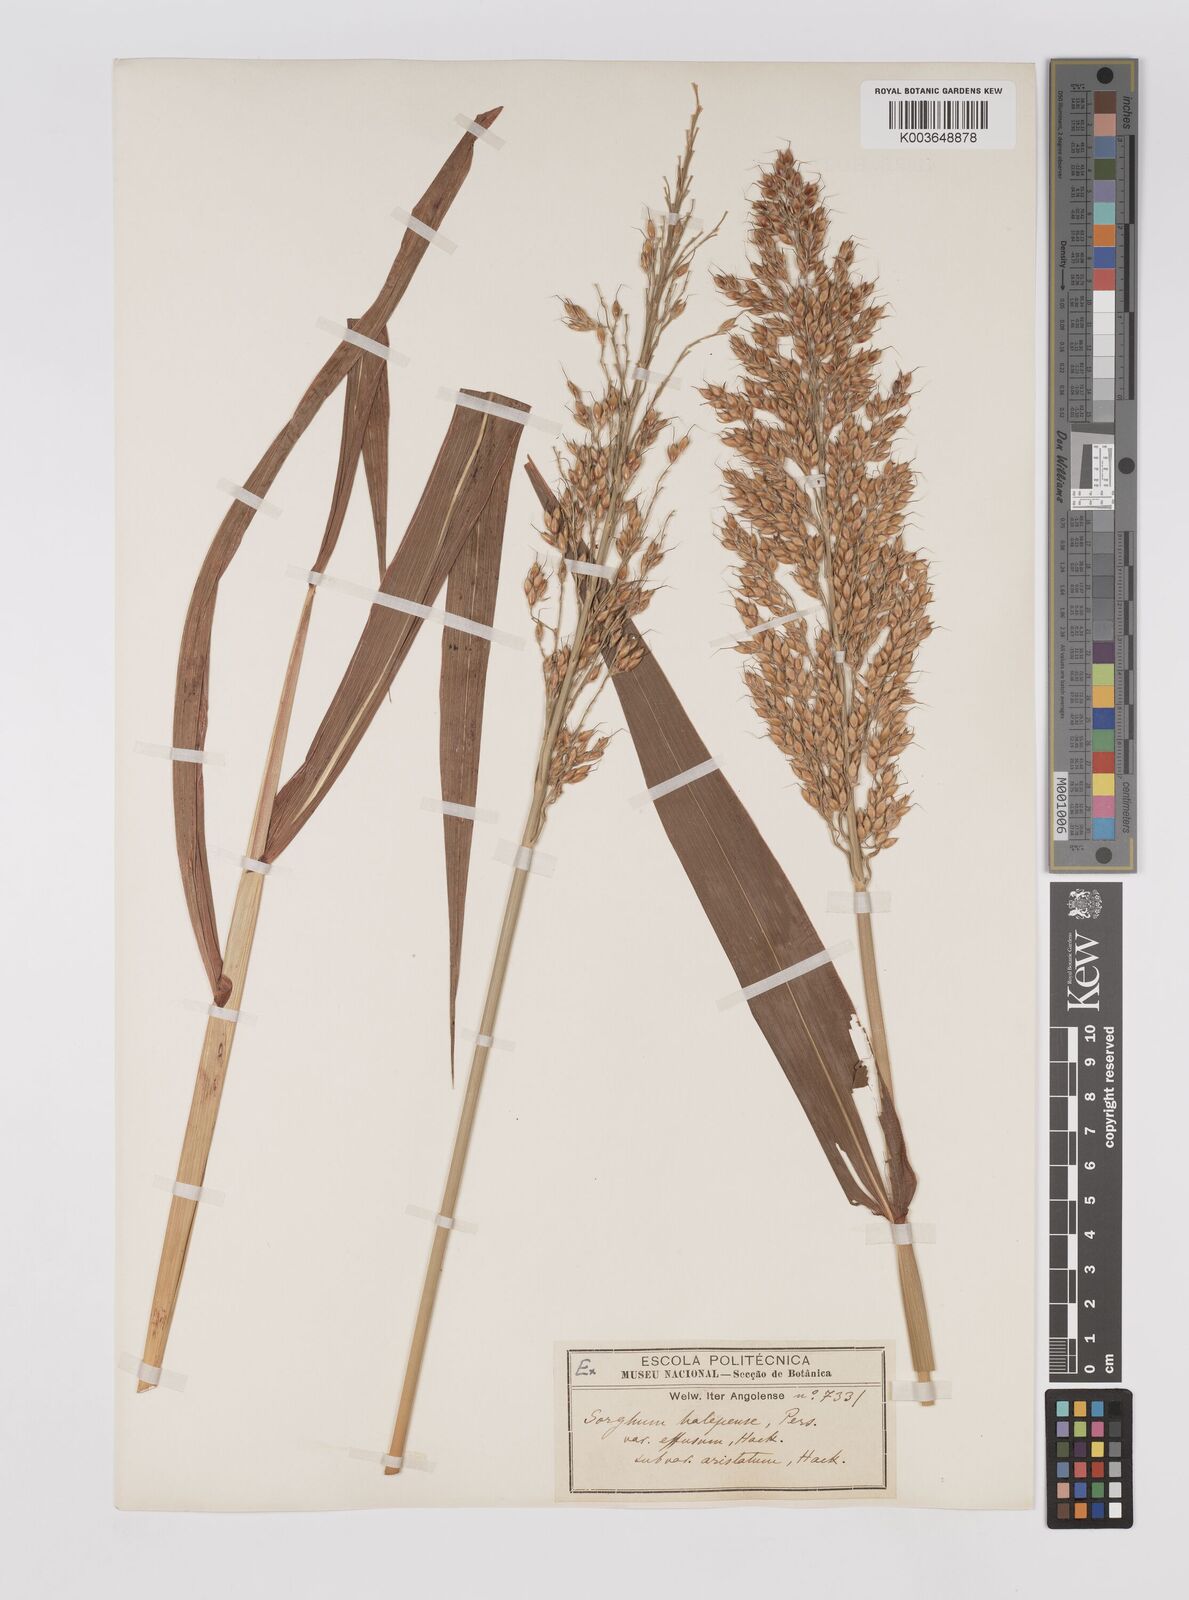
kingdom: Plantae
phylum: Tracheophyta
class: Liliopsida
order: Poales
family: Poaceae
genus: Sorghum
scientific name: Sorghum arundinaceum
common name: Sorghum
